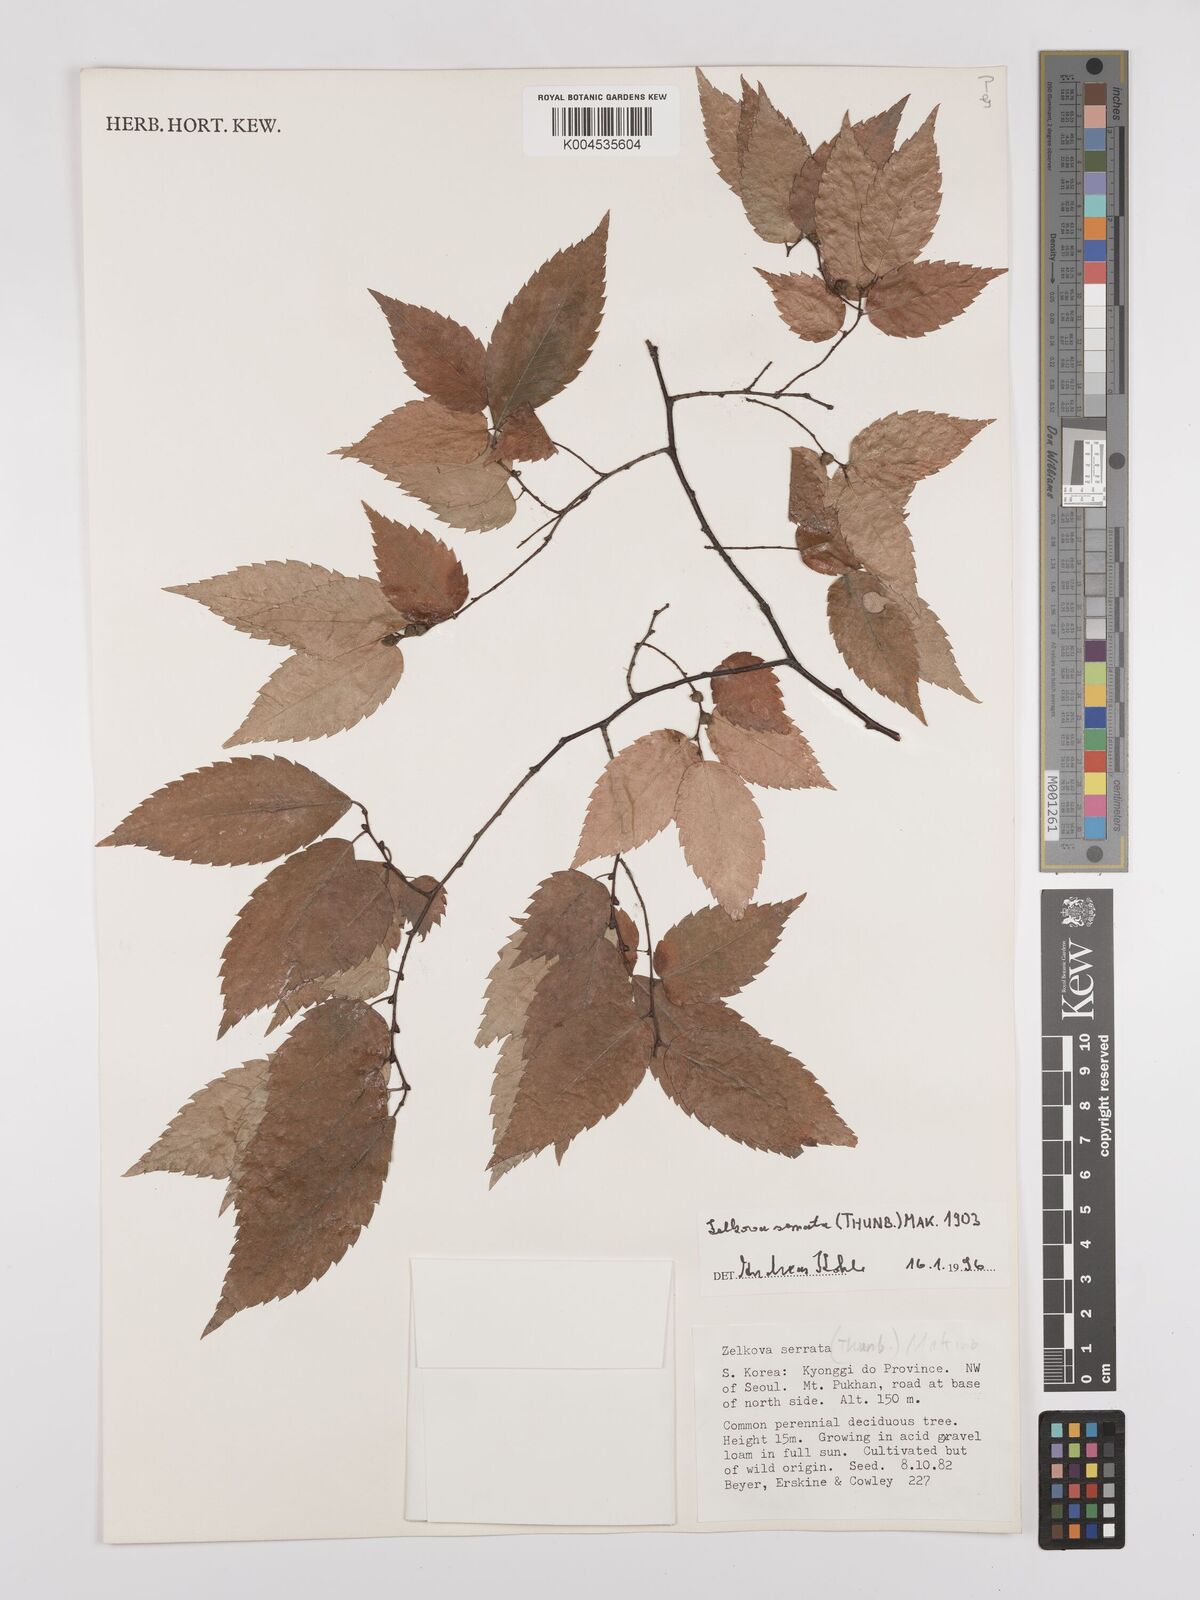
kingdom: Plantae
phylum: Tracheophyta
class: Magnoliopsida
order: Rosales
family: Ulmaceae
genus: Zelkova
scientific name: Zelkova serrata
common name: Japanese zelkova
